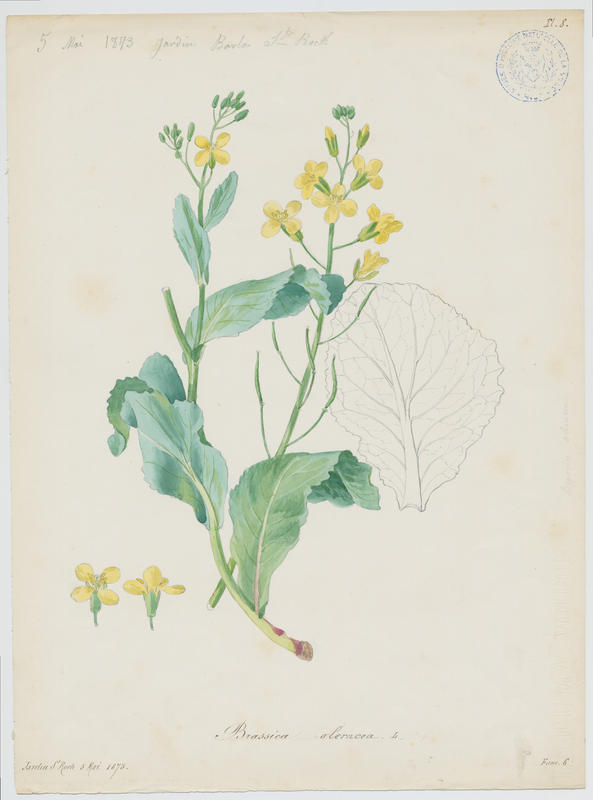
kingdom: Plantae
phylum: Tracheophyta
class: Magnoliopsida
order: Brassicales
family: Brassicaceae
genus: Brassica
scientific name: Brassica oleracea
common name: Cabbage
